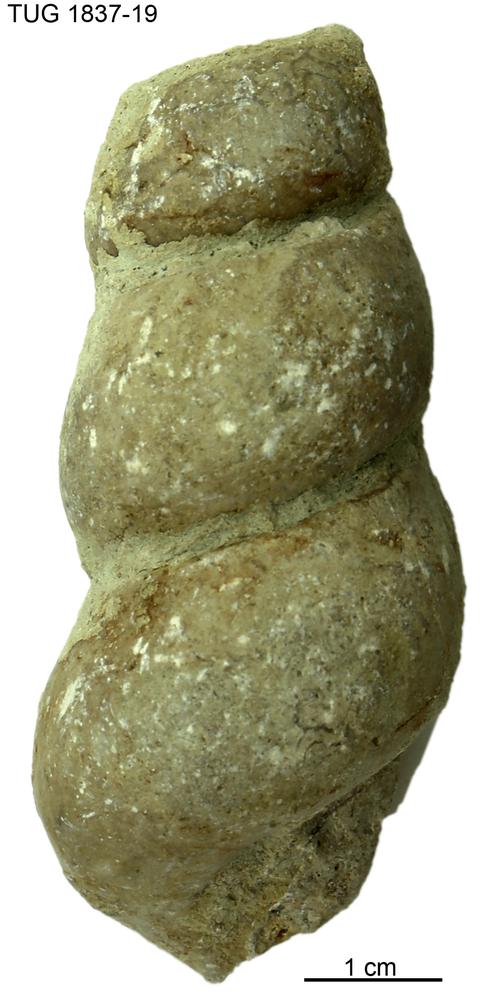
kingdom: Animalia
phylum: Mollusca
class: Gastropoda
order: Pleurotomariida
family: Murchisoniidae
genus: Hormotoma
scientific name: Hormotoma
